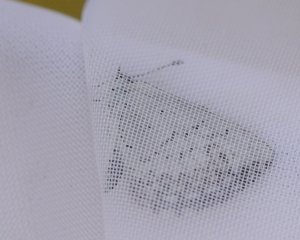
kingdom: Animalia
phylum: Arthropoda
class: Insecta
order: Lepidoptera
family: Lycaenidae
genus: Cyaniris
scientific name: Cyaniris neglecta
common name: Summer Azure
